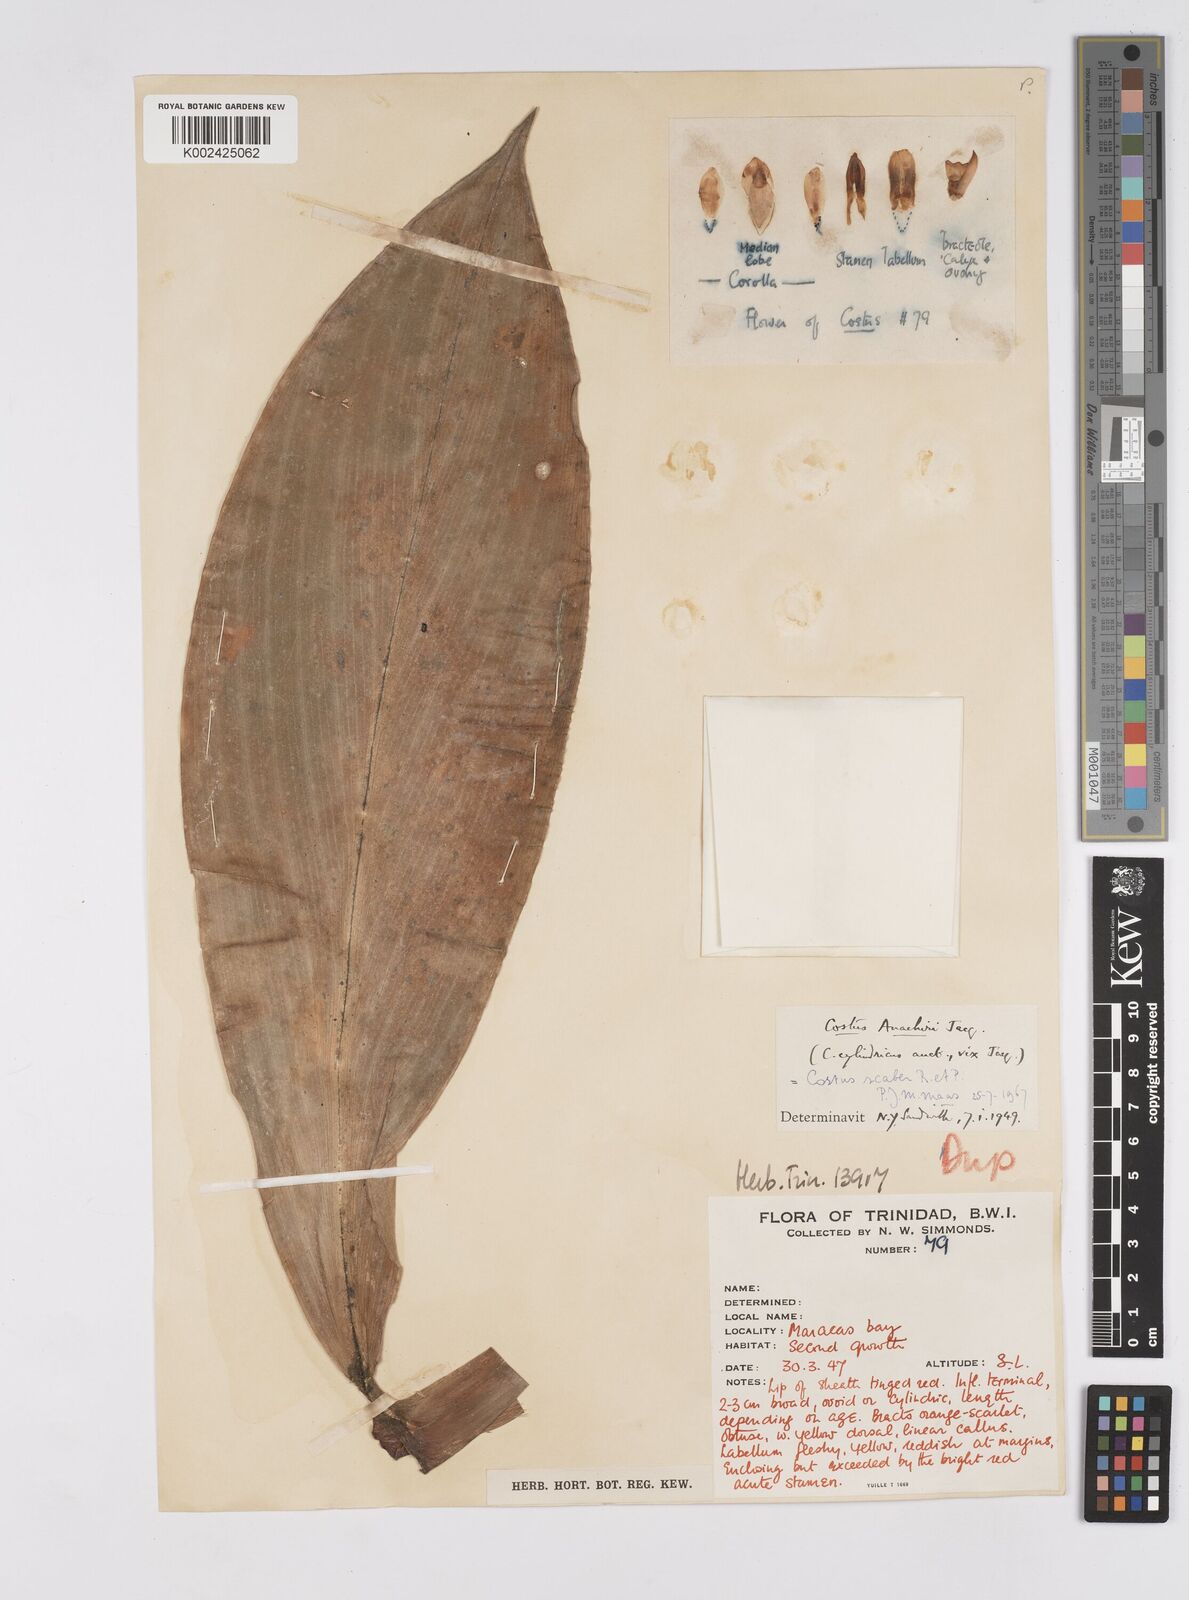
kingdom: Plantae
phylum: Tracheophyta
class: Liliopsida
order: Zingiberales
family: Costaceae
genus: Costus
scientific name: Costus scaber
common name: Spiral head ginger
